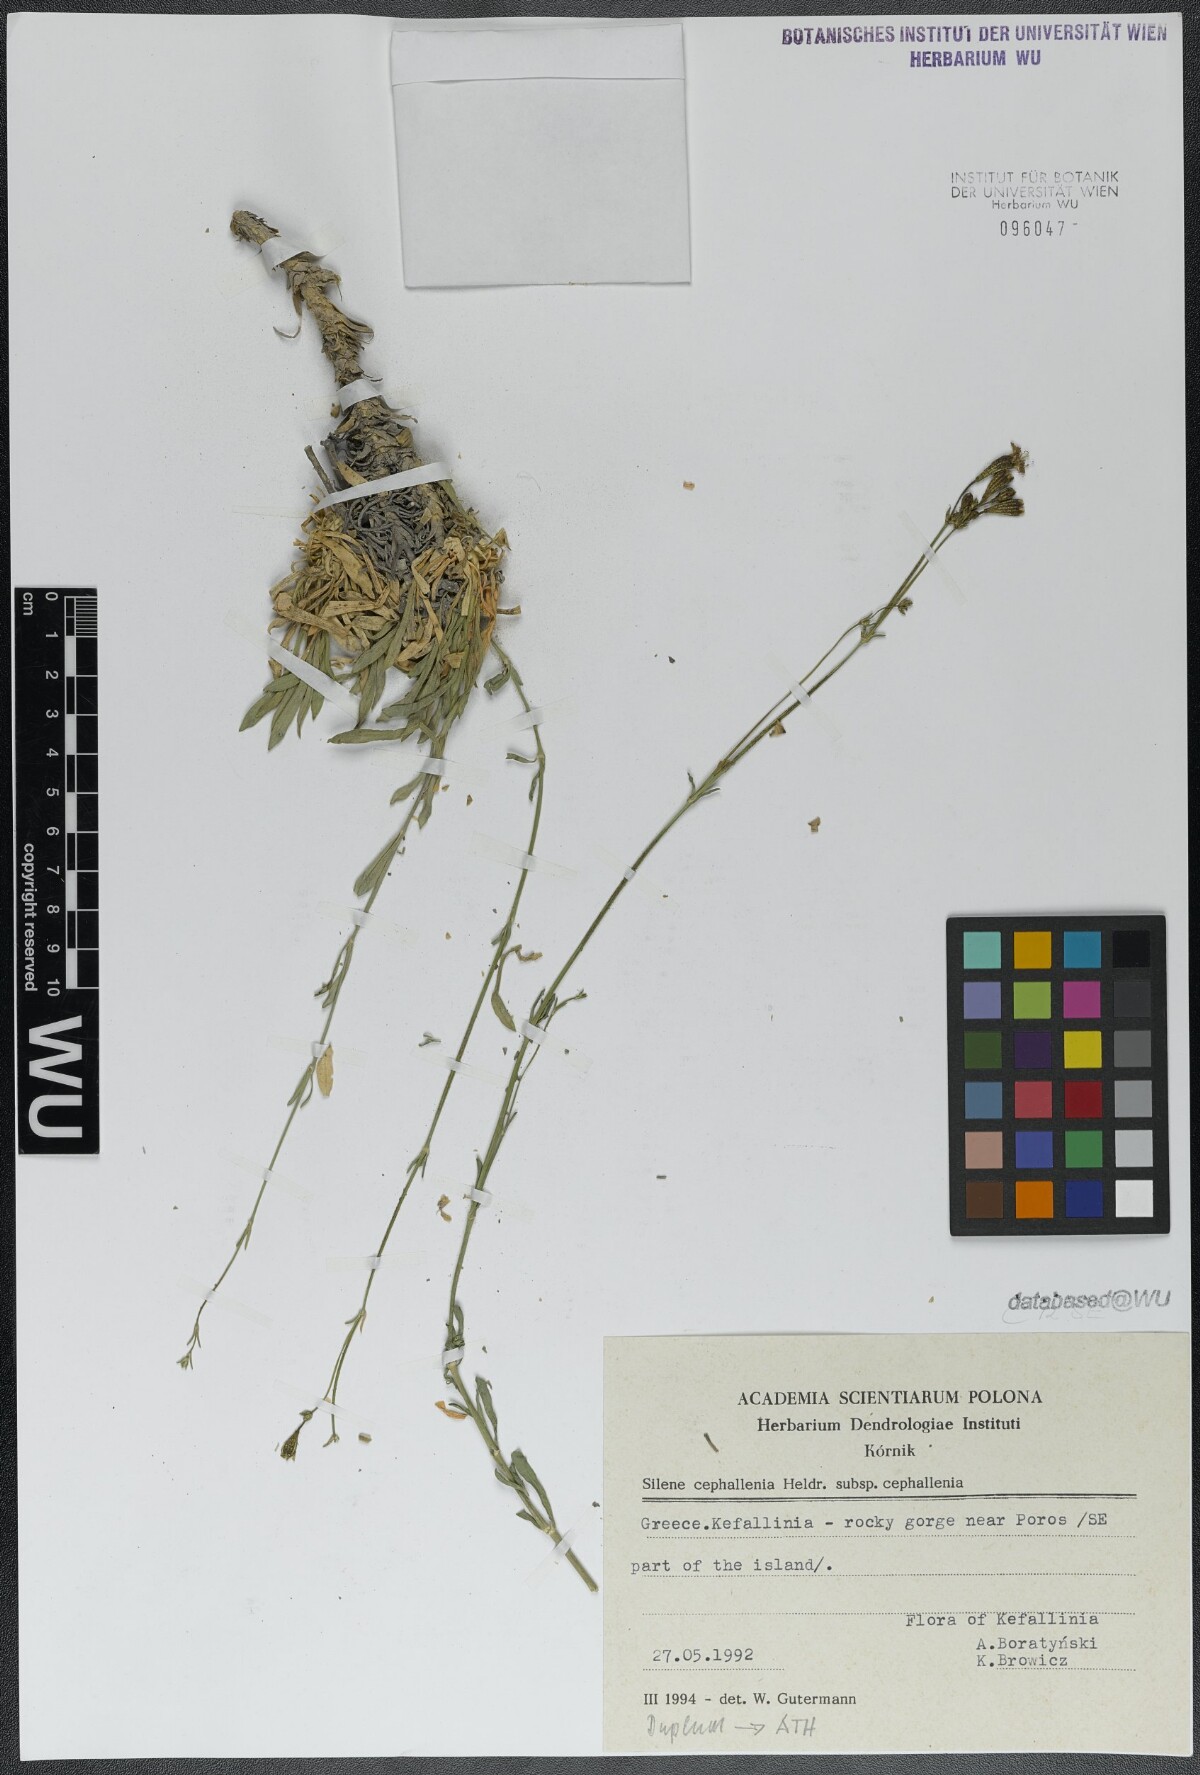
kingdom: Plantae
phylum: Tracheophyta
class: Magnoliopsida
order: Caryophyllales
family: Caryophyllaceae
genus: Silene
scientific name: Silene cephallenia
